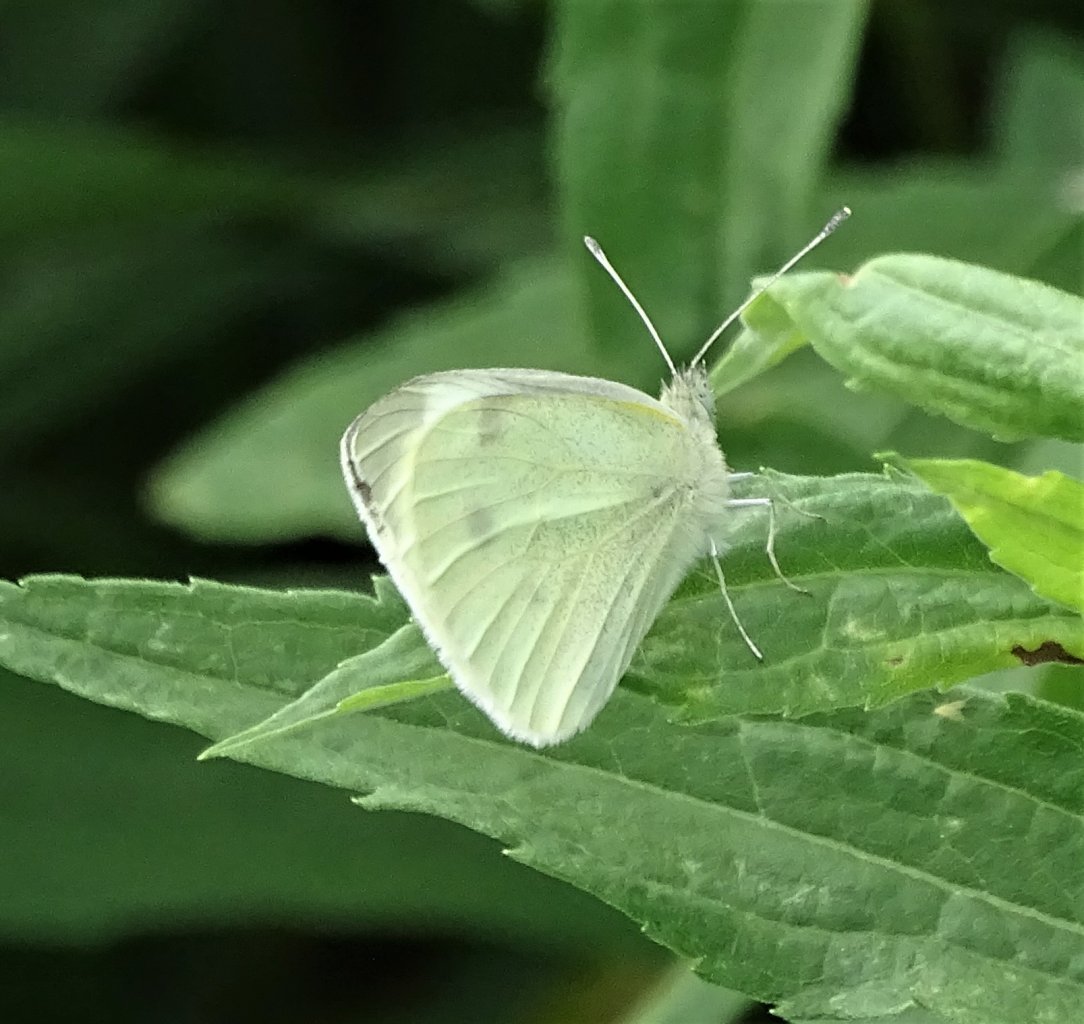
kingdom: Animalia
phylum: Arthropoda
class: Insecta
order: Lepidoptera
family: Pieridae
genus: Pieris
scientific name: Pieris rapae
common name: Cabbage White
